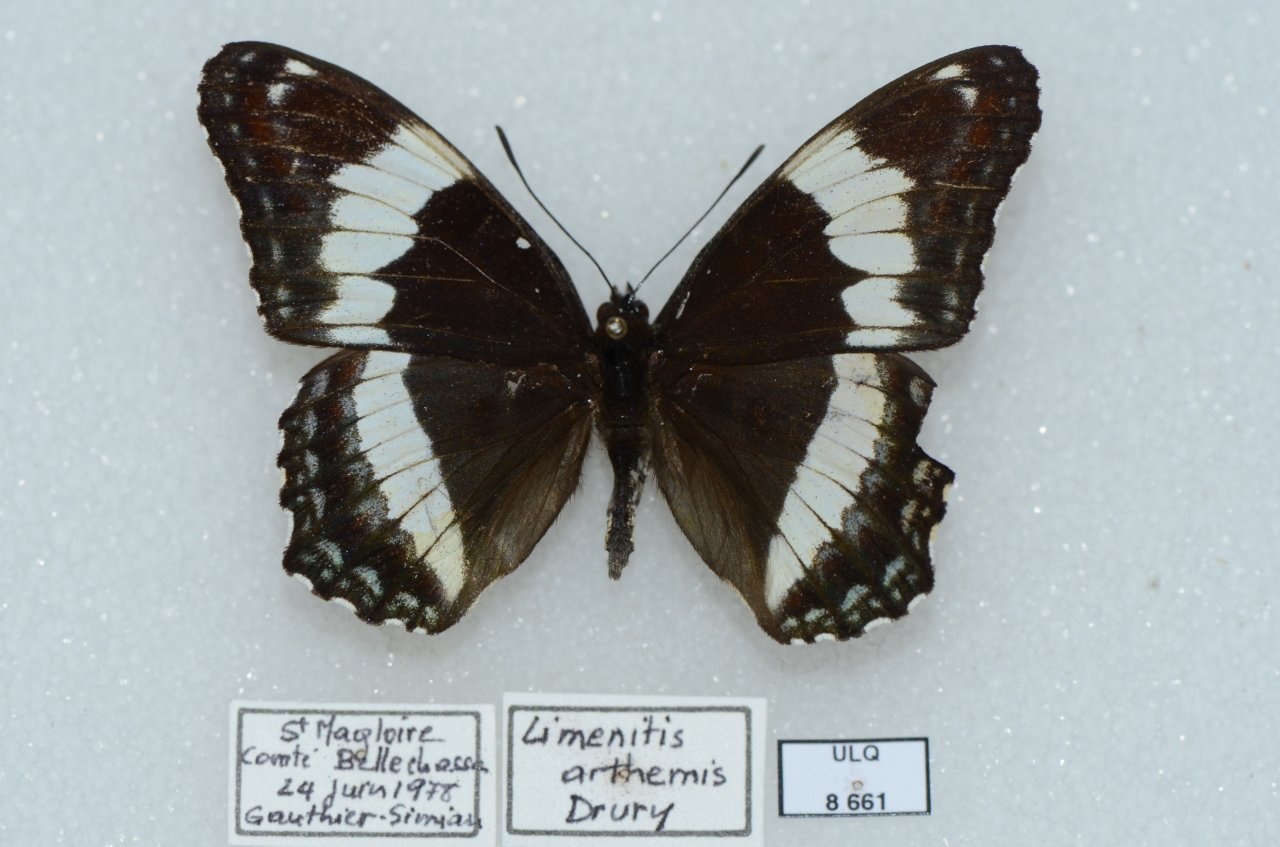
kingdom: Animalia
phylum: Arthropoda
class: Insecta
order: Lepidoptera
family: Nymphalidae
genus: Limenitis
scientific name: Limenitis arthemis
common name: Red-spotted Admiral
